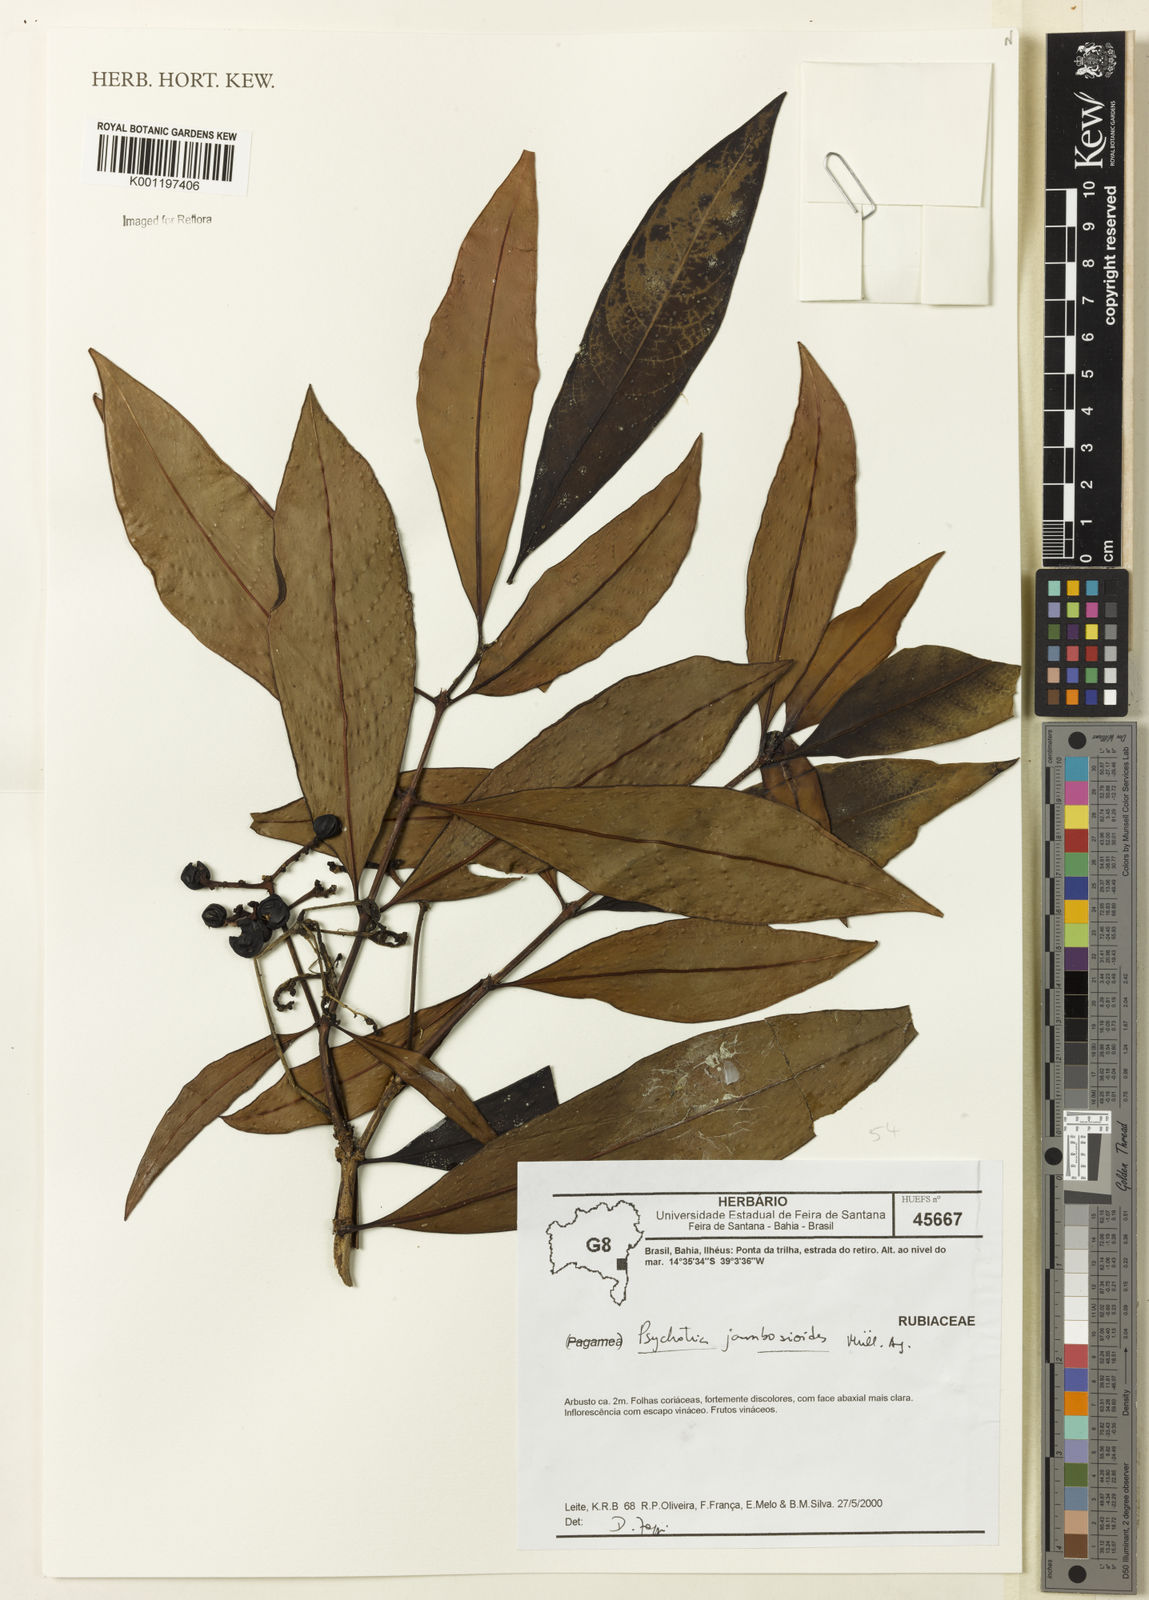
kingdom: Plantae
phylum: Tracheophyta
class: Magnoliopsida
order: Gentianales
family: Rubiaceae
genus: Palicourea
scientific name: Palicourea jambosioides
